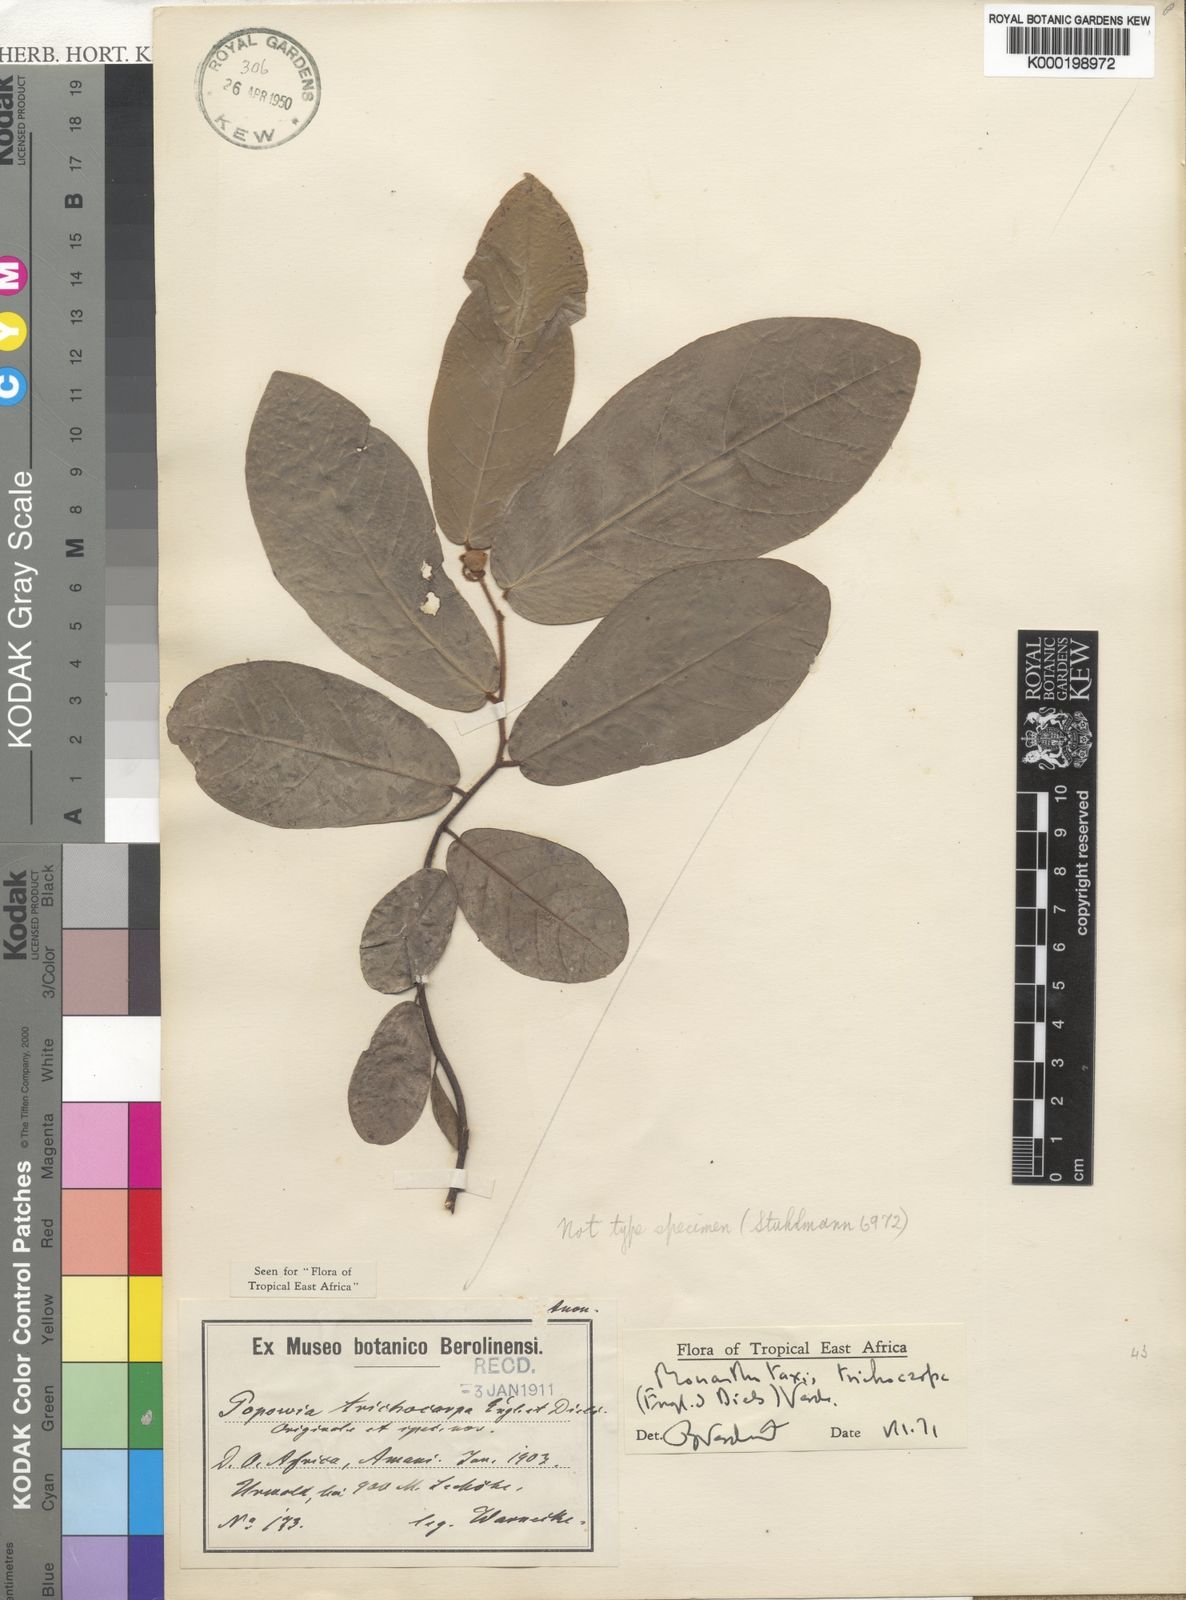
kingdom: Plantae
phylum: Tracheophyta
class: Magnoliopsida
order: Magnoliales
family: Annonaceae
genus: Monanthotaxis
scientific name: Monanthotaxis trichocarpa
